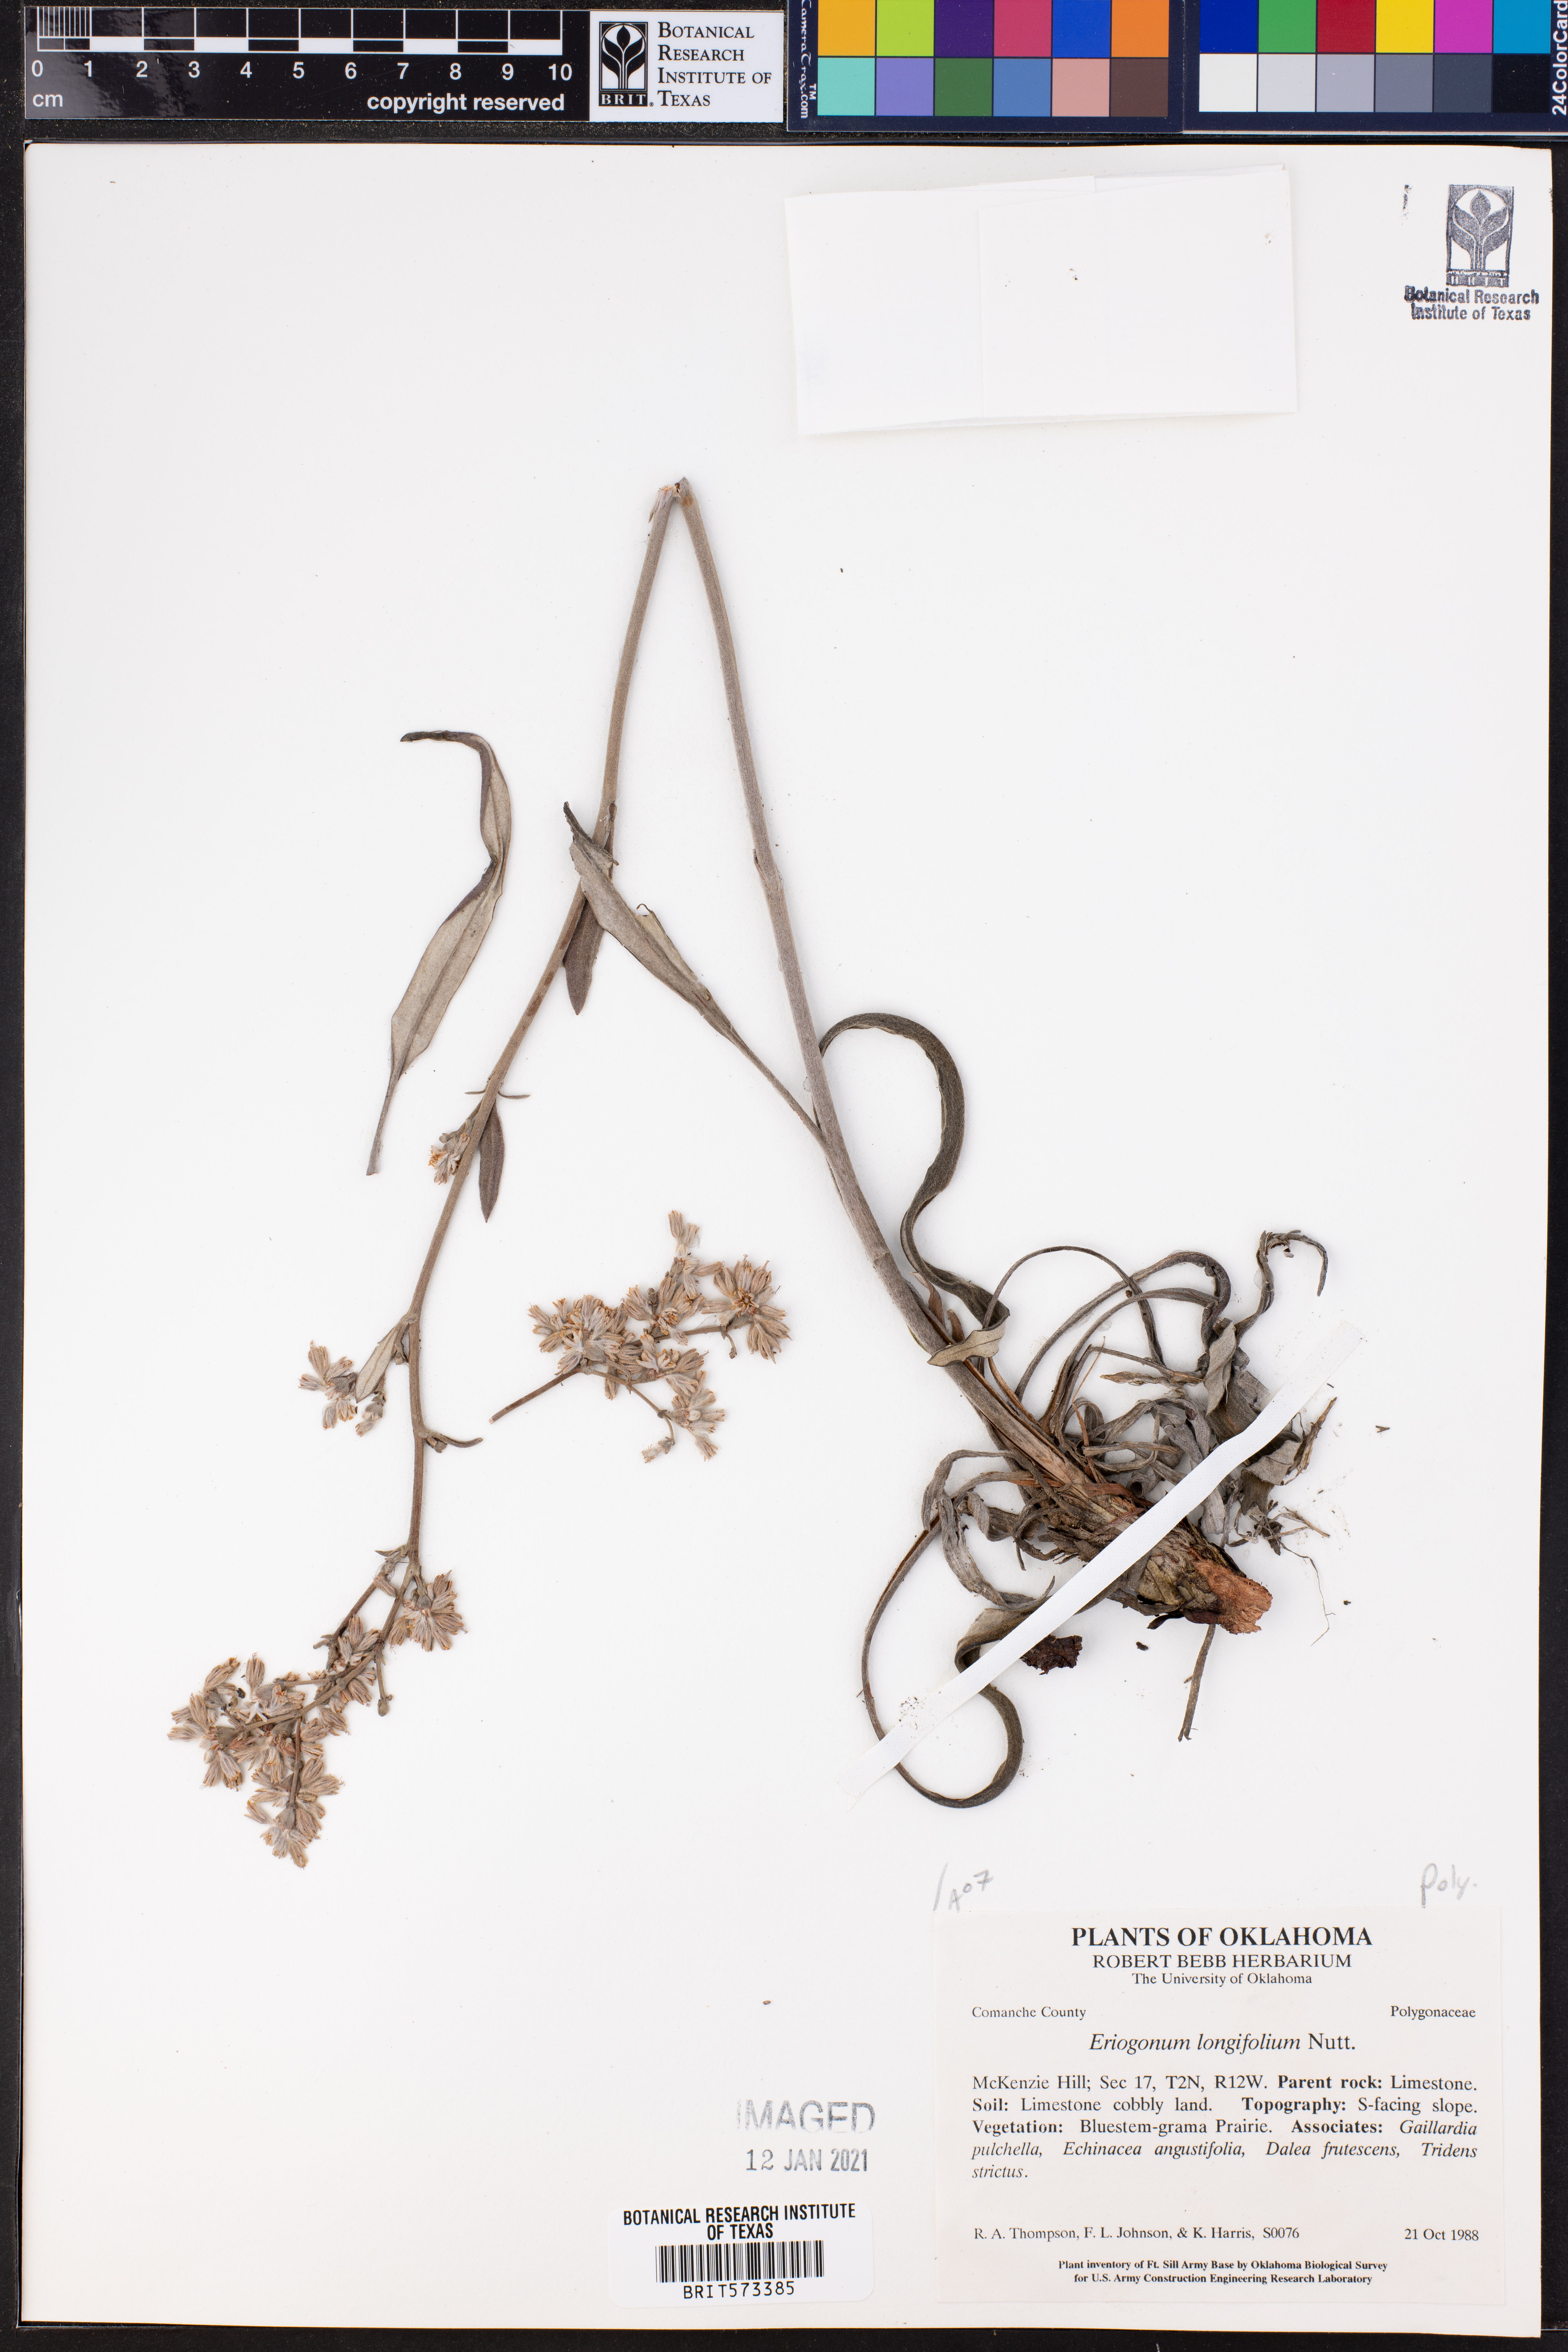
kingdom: Plantae
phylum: Tracheophyta
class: Magnoliopsida
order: Caryophyllales
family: Polygonaceae
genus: Eriogonum
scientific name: Eriogonum longifolium
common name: Longleaf wild buckwheat
